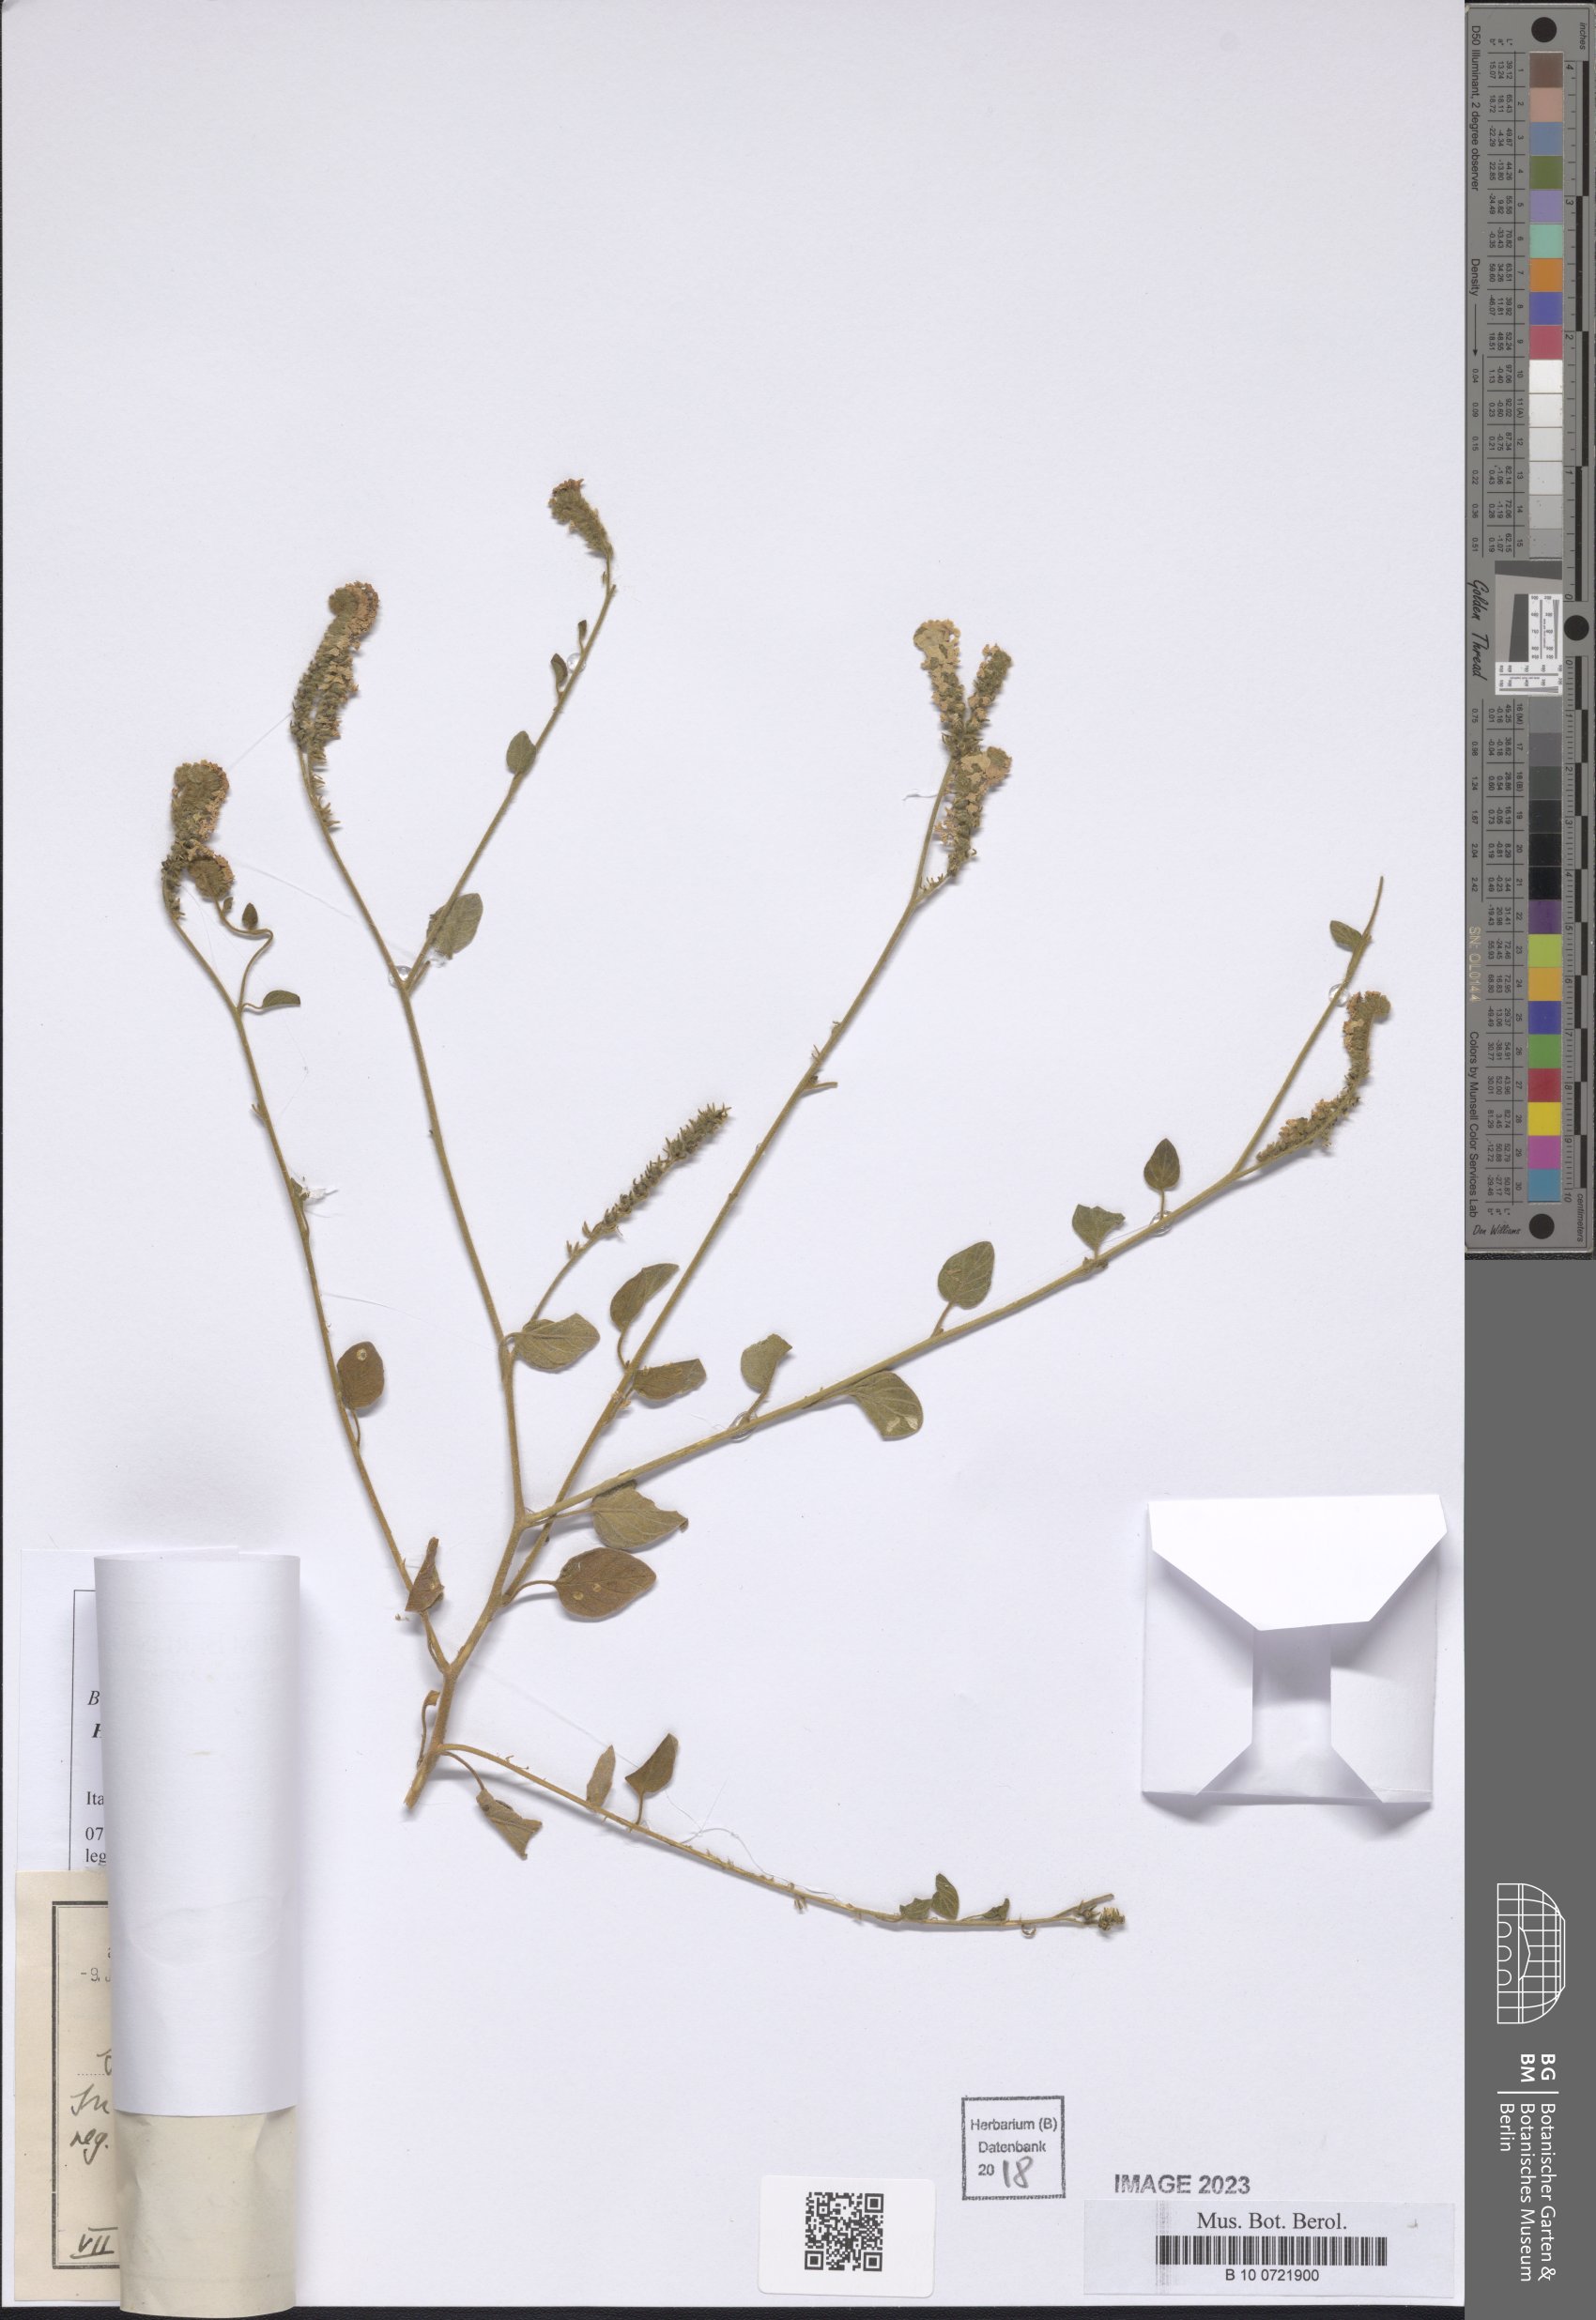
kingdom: Plantae
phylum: Tracheophyta
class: Magnoliopsida
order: Boraginales
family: Heliotropiaceae
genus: Heliotropium
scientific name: Heliotropium suaveolens
